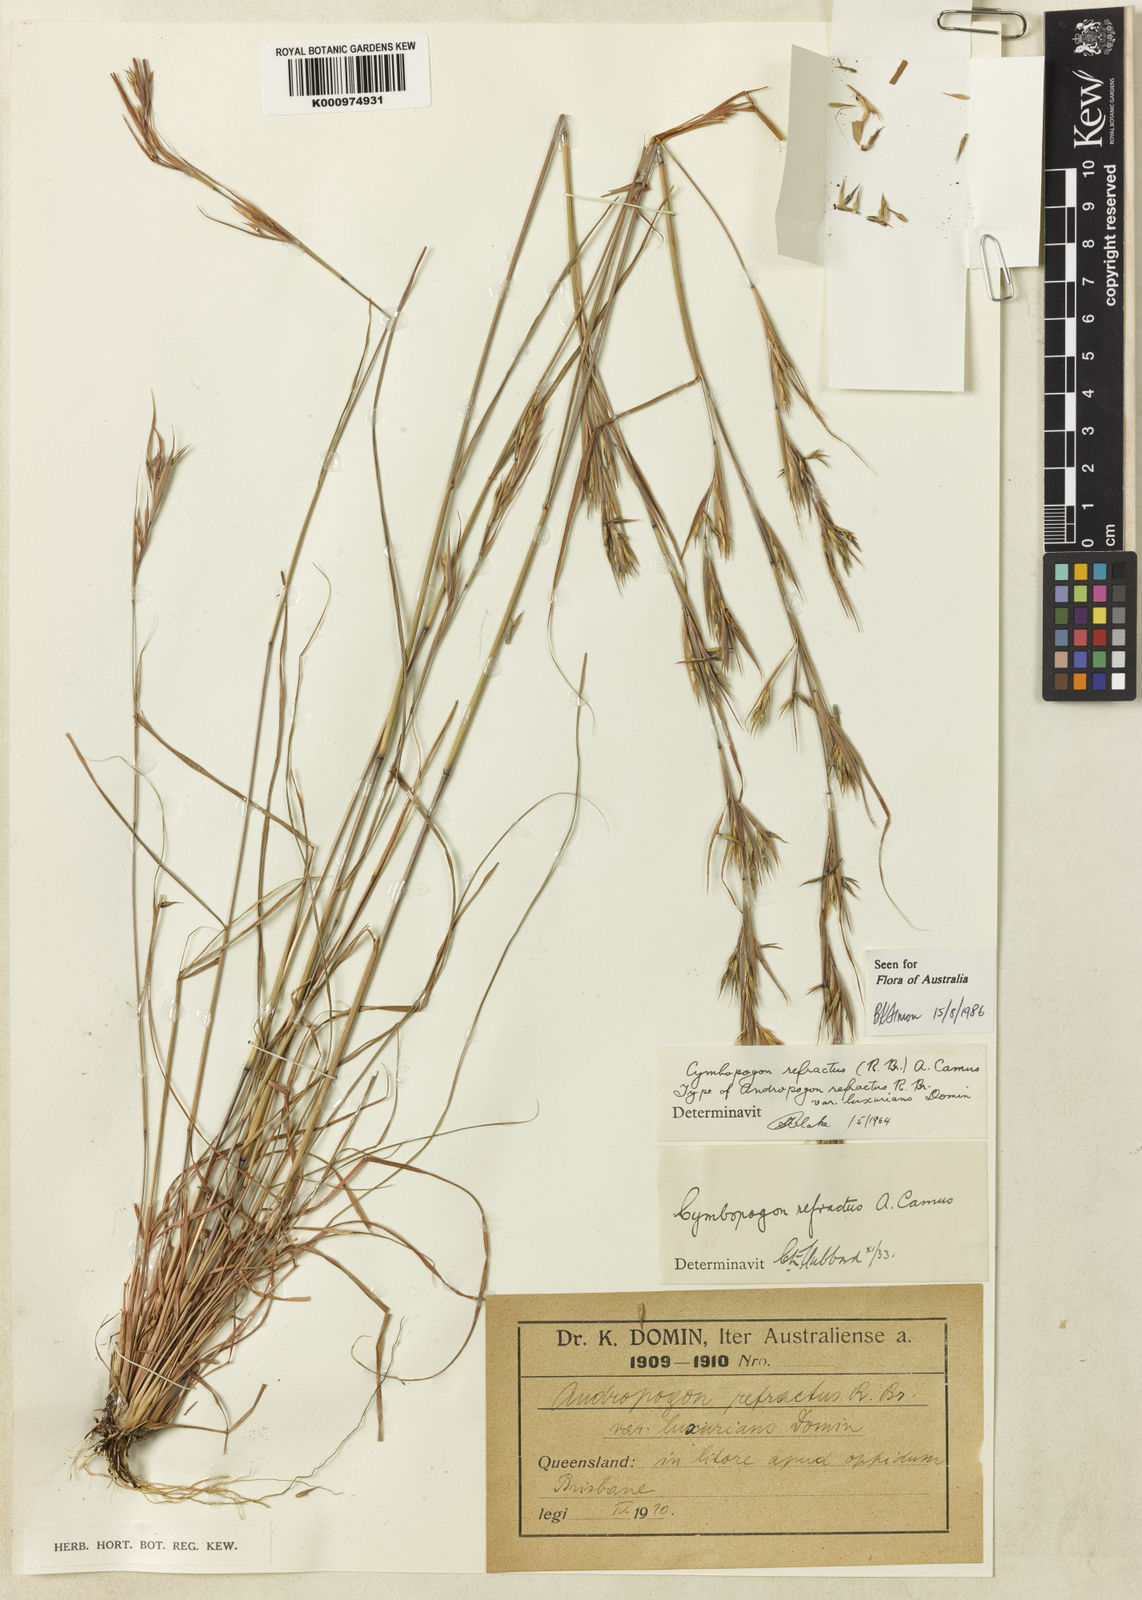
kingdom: Plantae
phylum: Tracheophyta
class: Liliopsida
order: Poales
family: Poaceae
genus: Cymbopogon
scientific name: Cymbopogon refractus
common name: Barbwire grass
